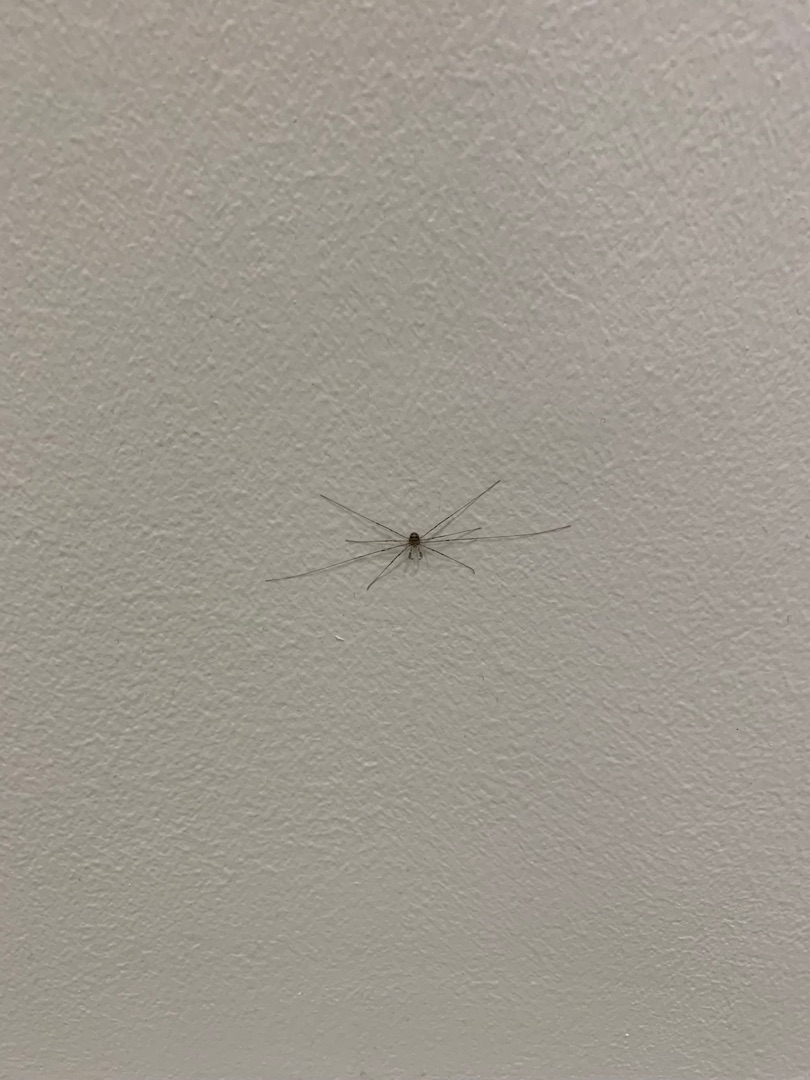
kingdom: Animalia
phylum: Arthropoda
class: Arachnida
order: Opiliones
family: Phalangiidae
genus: Dicranopalpus
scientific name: Dicranopalpus ramosus
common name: Gaffelmejer
